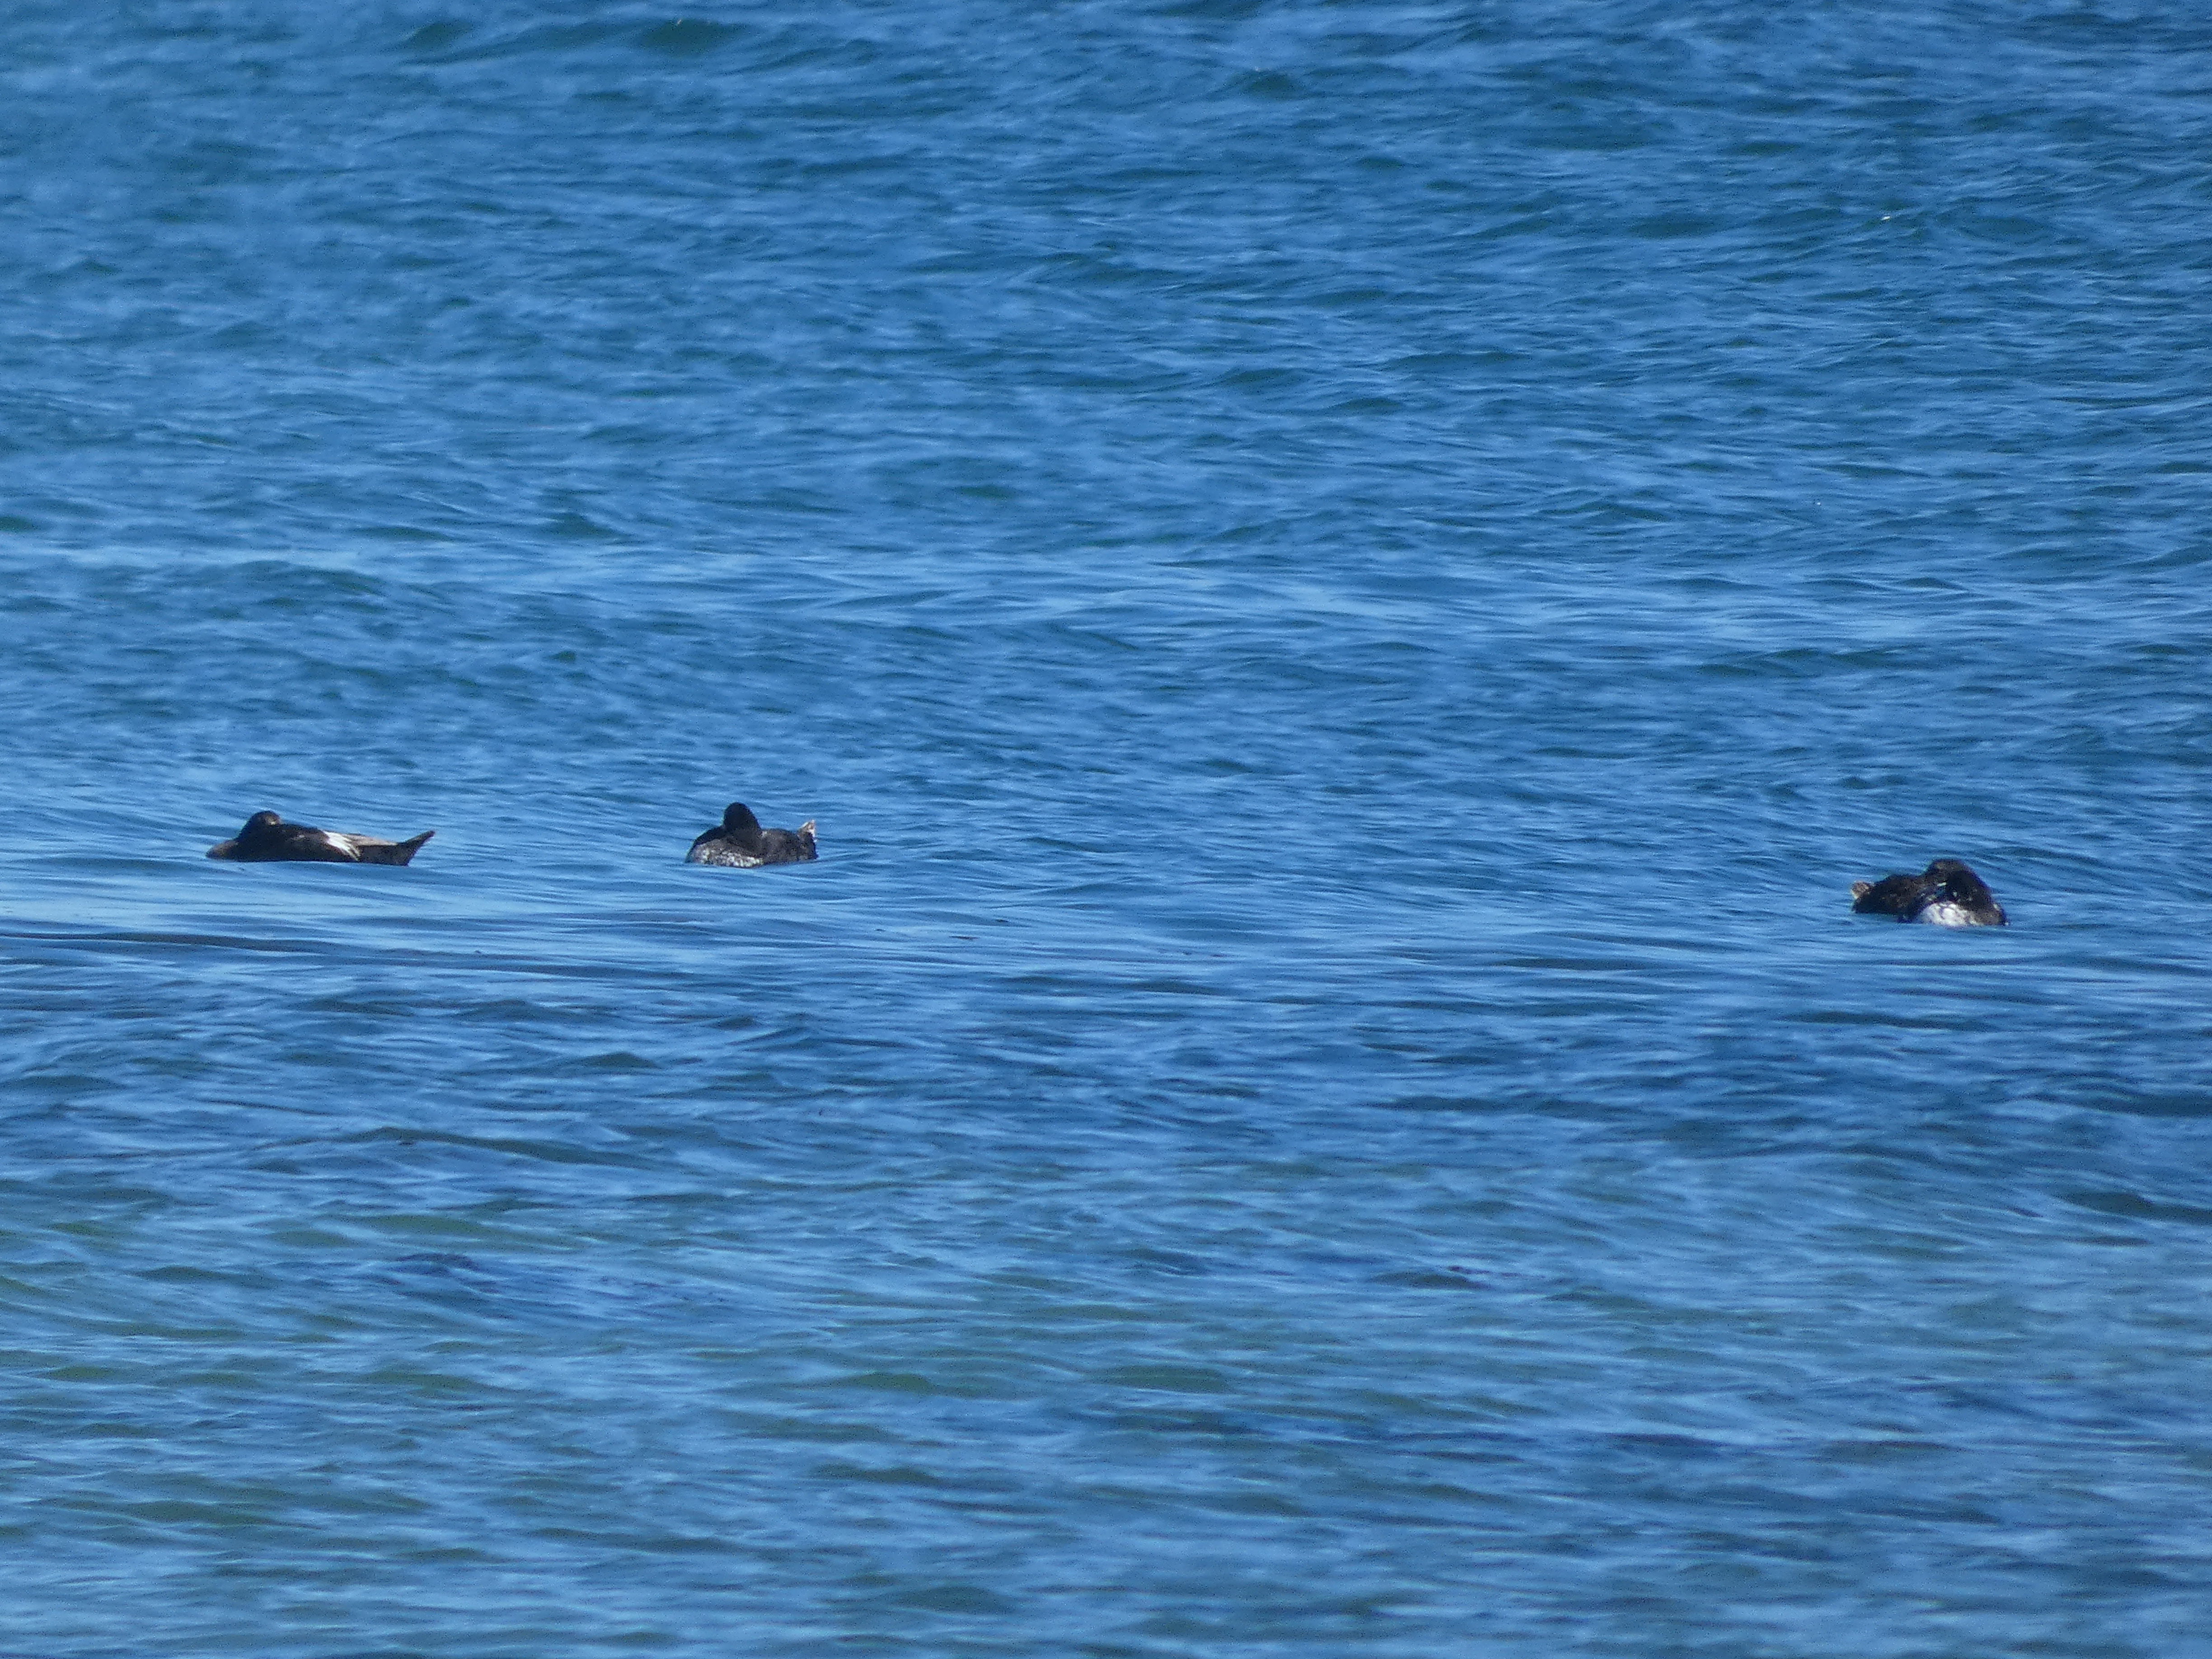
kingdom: Animalia
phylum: Chordata
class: Aves
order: Anseriformes
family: Anatidae
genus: Somateria
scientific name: Somateria mollissima
